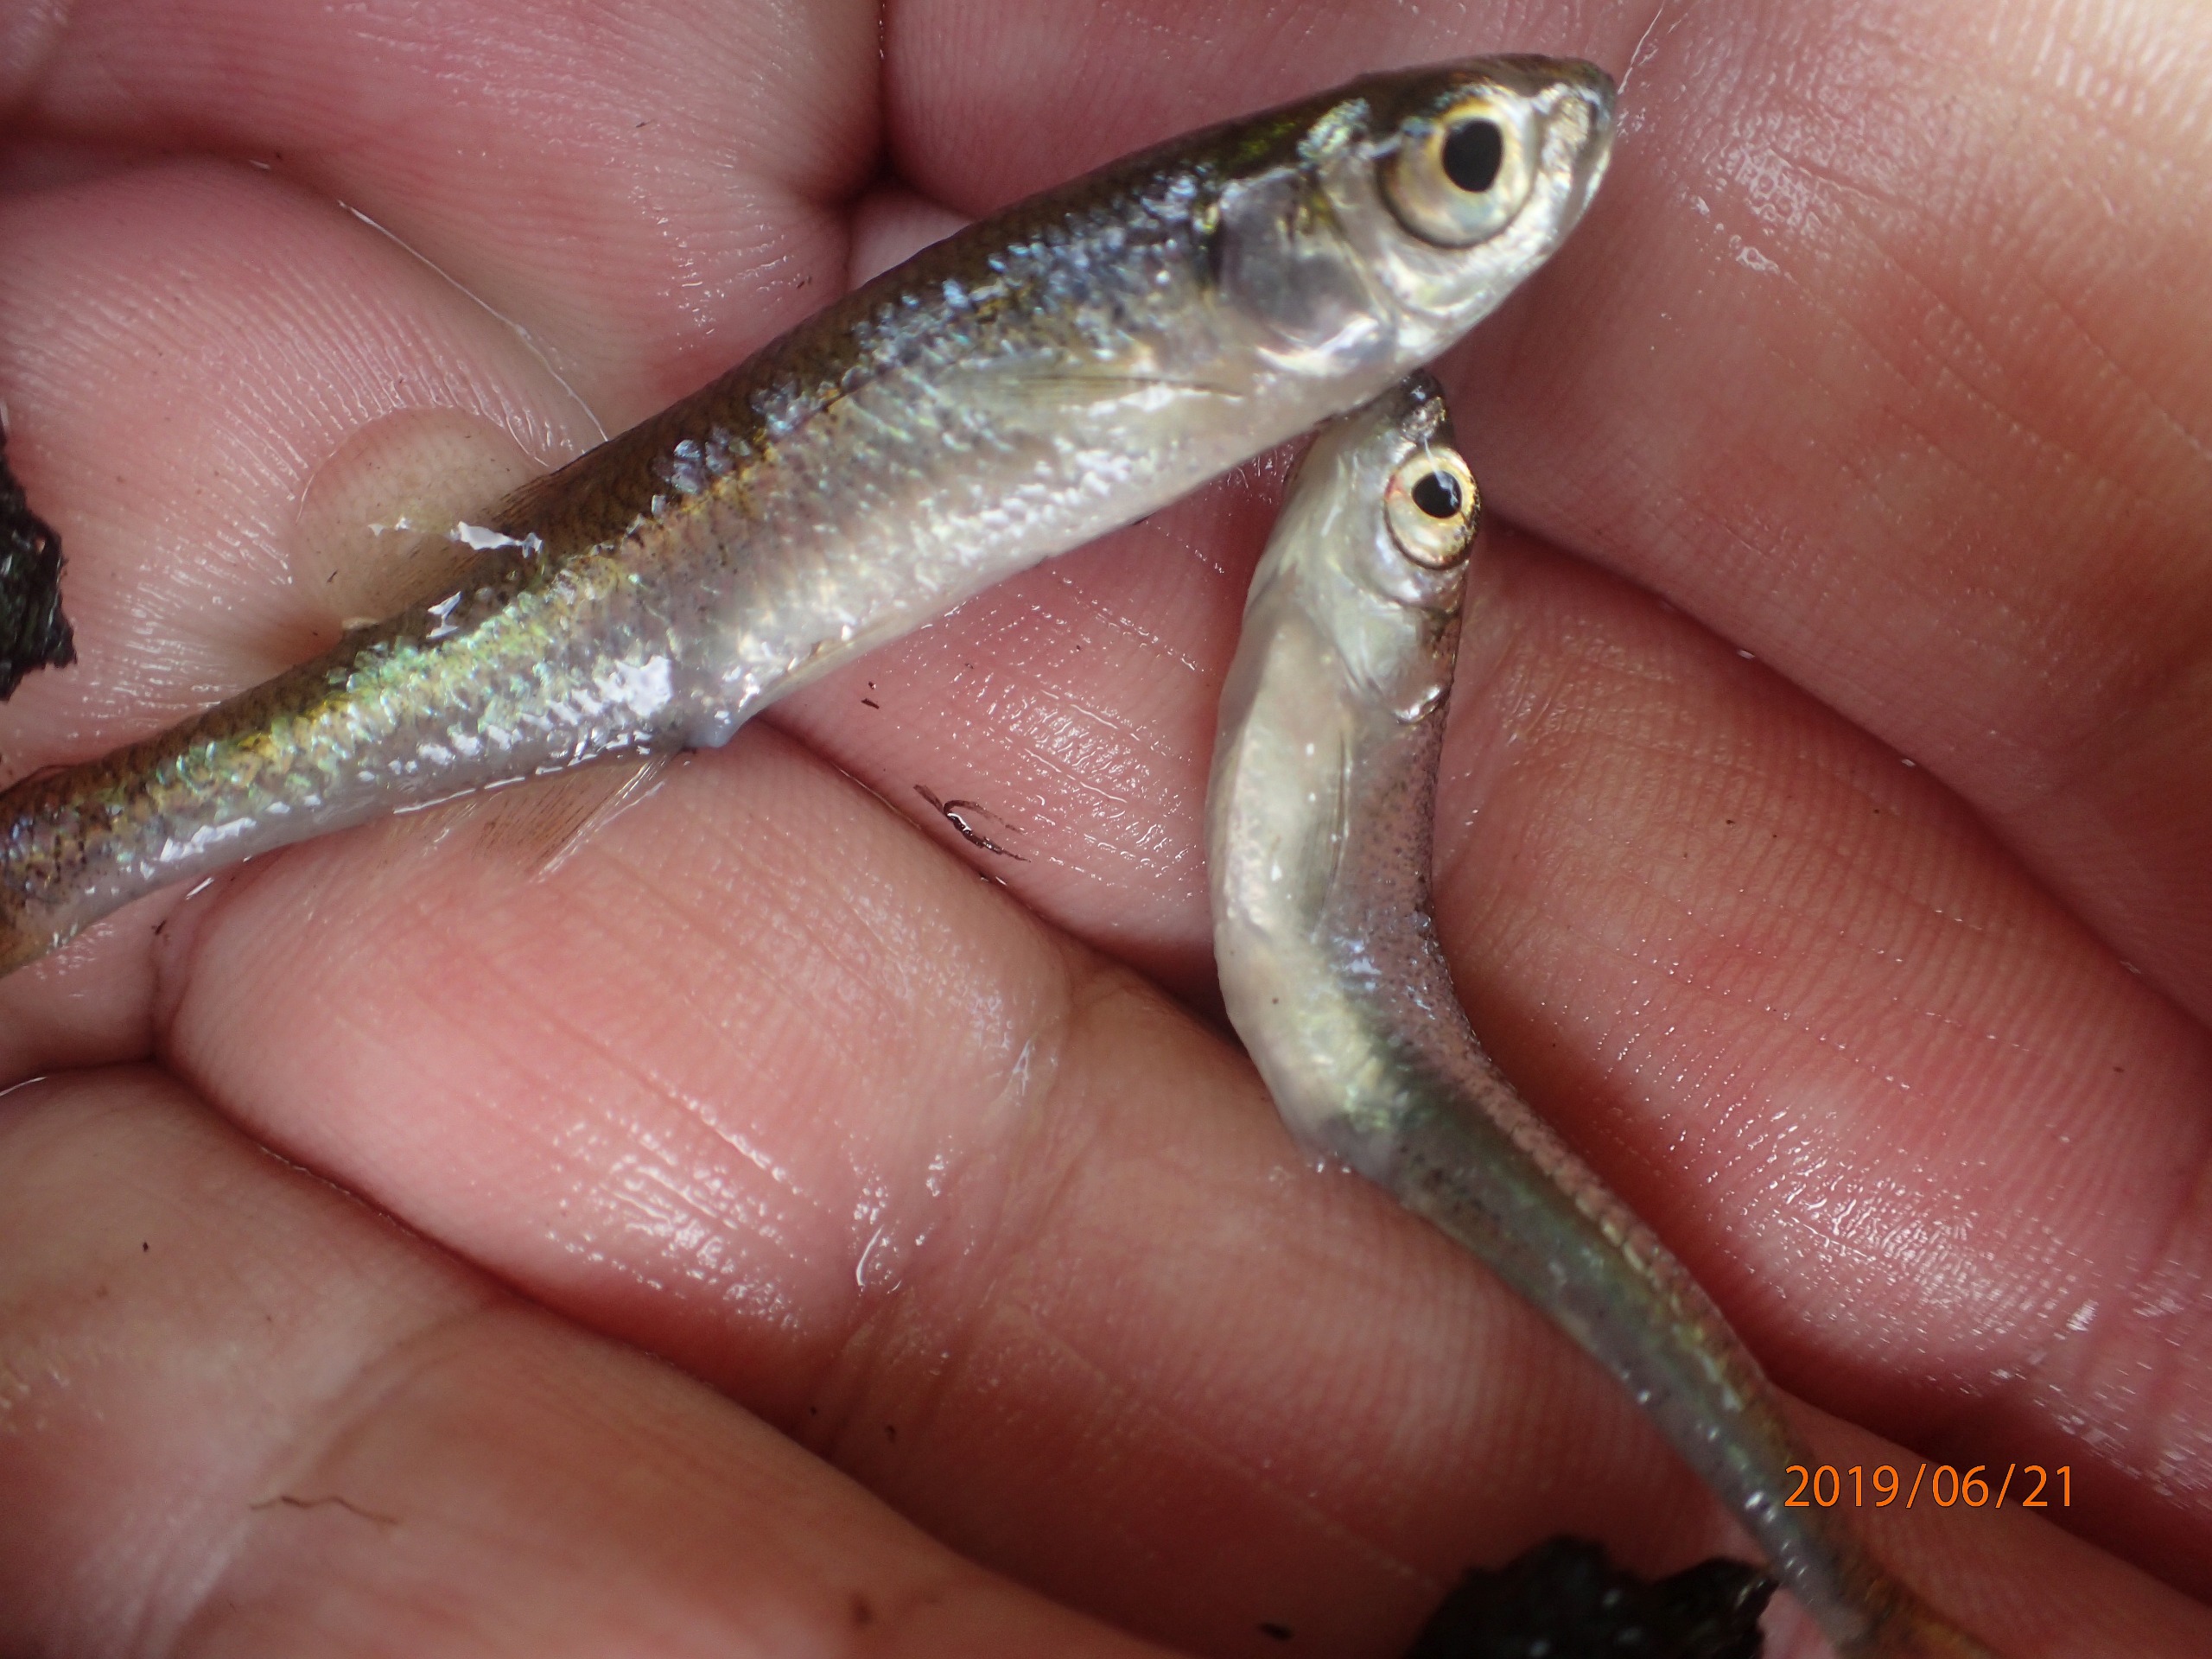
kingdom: Animalia
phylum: Chordata
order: Cypriniformes
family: Cyprinidae
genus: Leucaspius
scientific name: Leucaspius delineatus
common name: Regnløje
